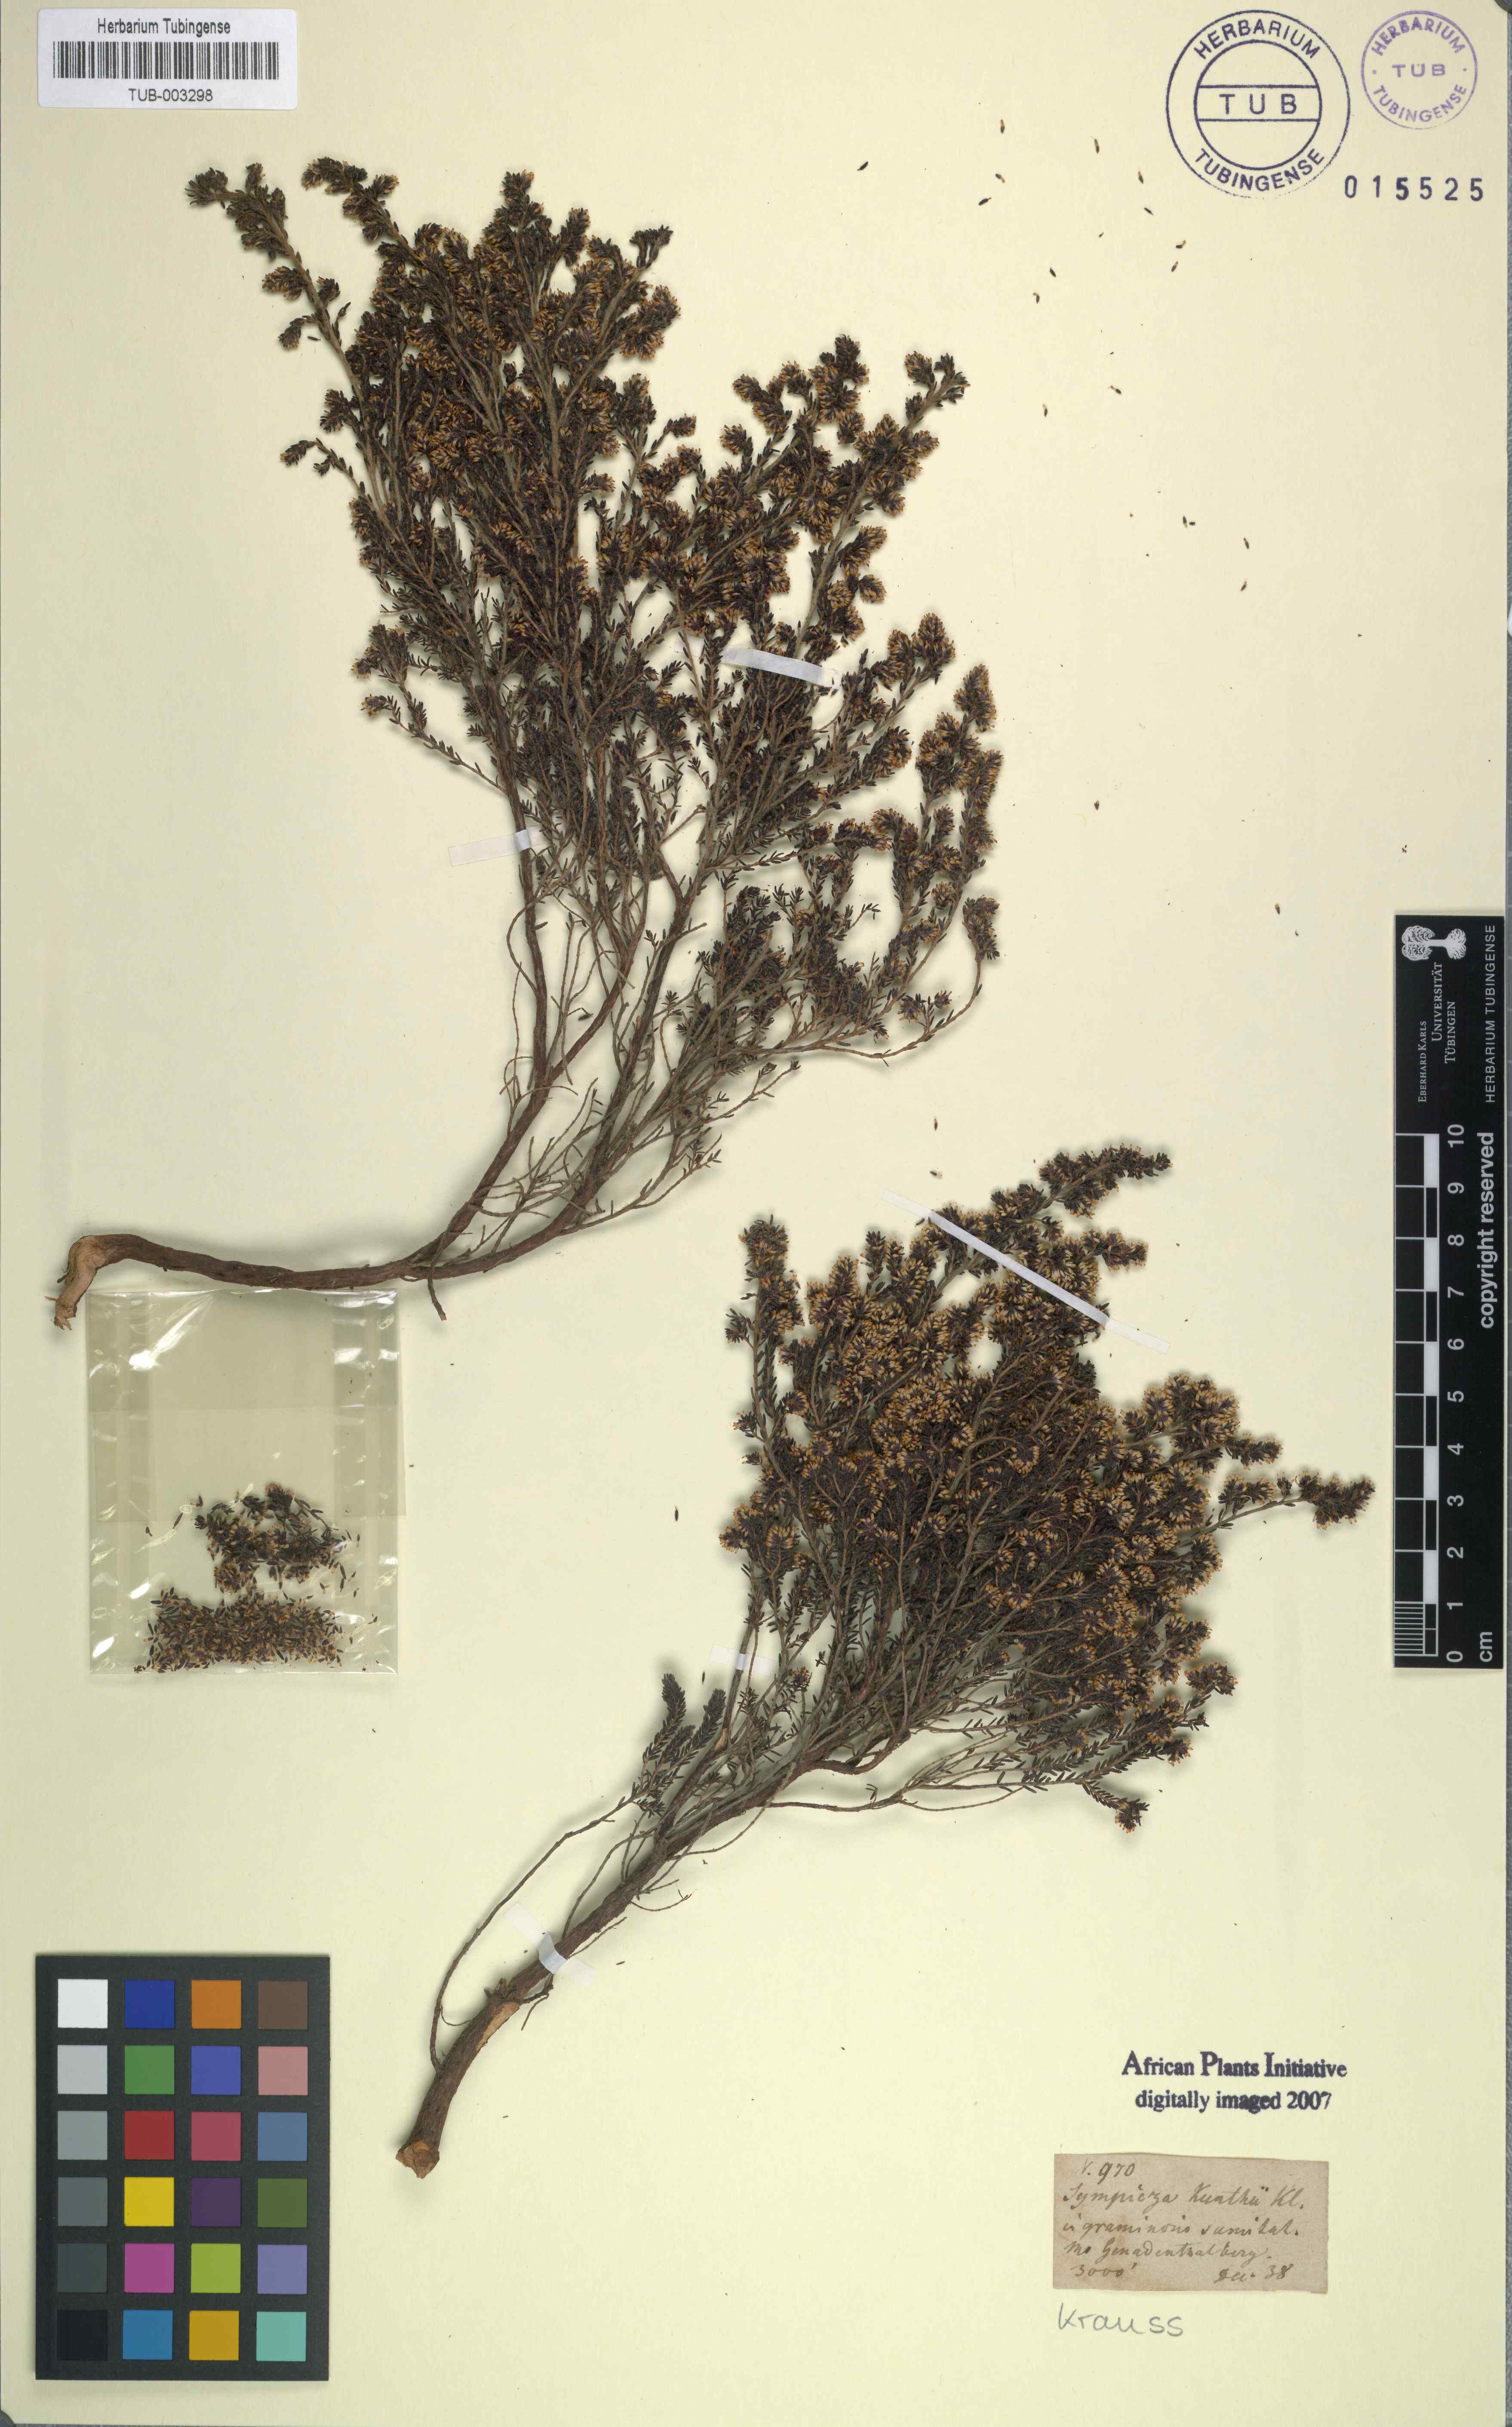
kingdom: Plantae
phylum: Tracheophyta
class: Magnoliopsida
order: Ericales
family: Ericaceae
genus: Erica
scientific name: Erica benthamiana
